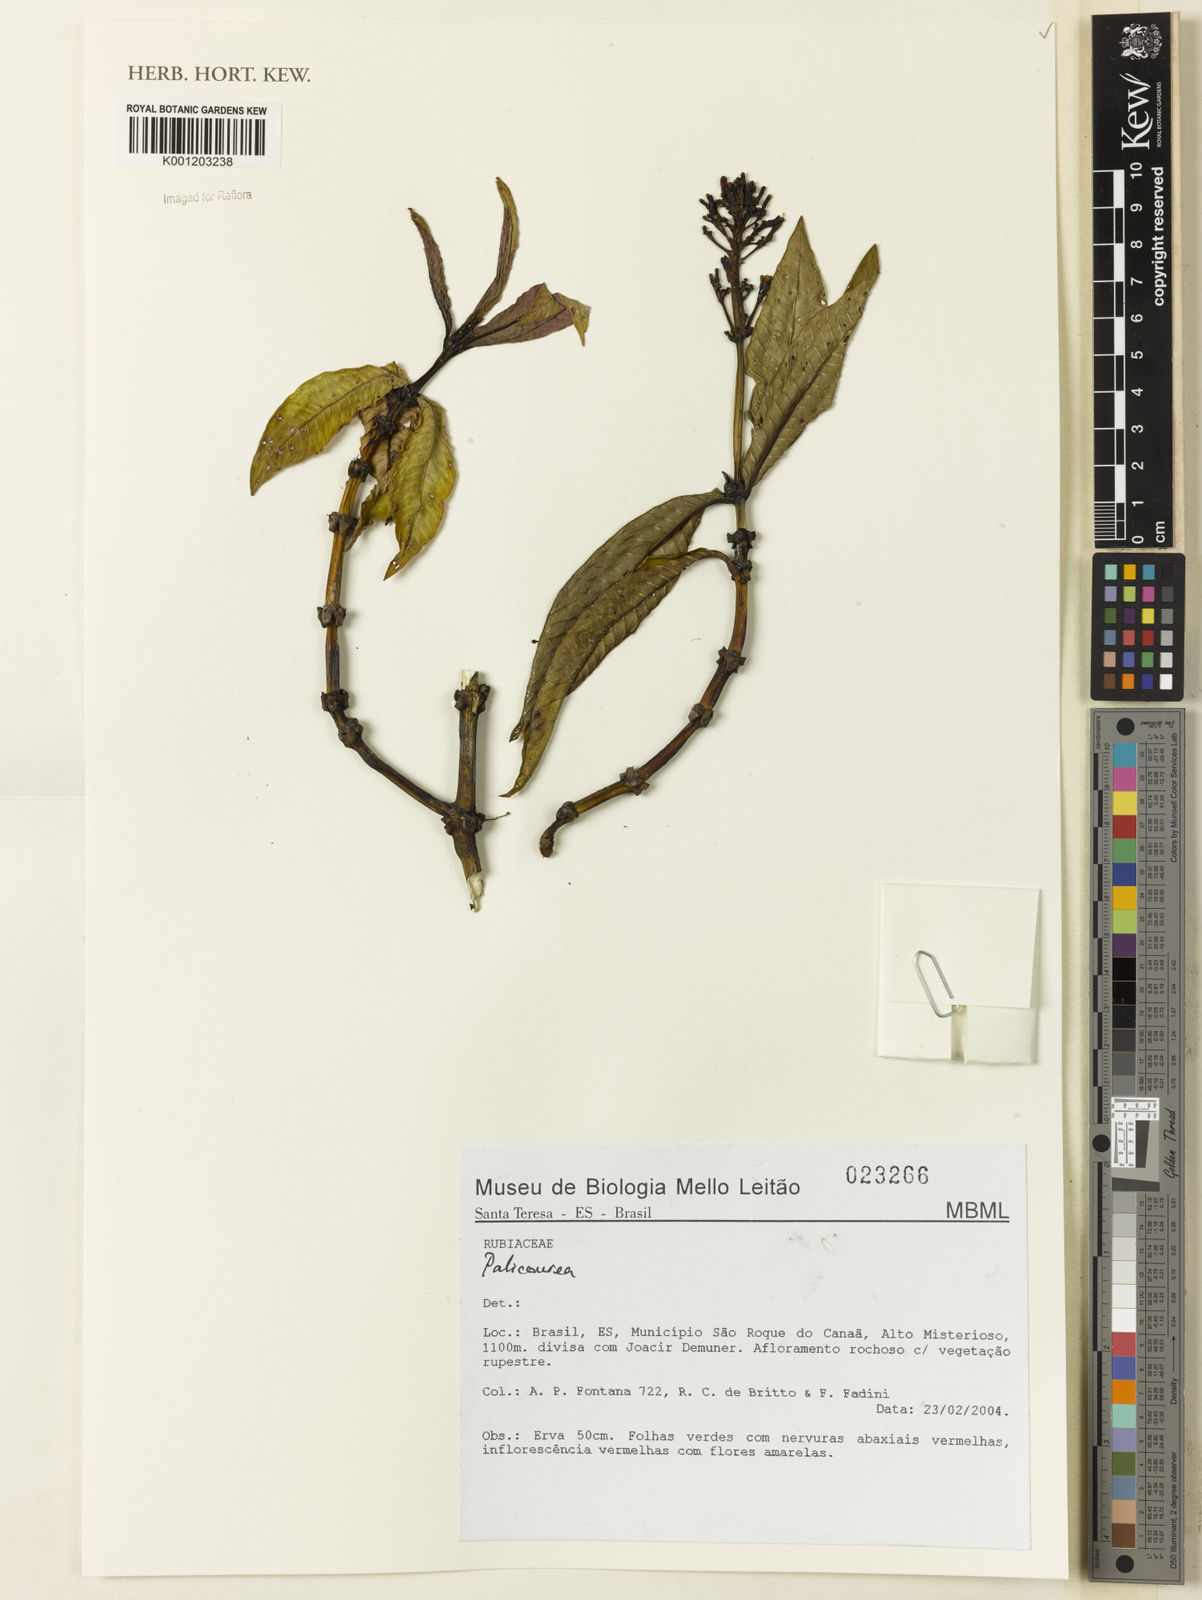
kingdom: Plantae
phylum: Tracheophyta
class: Magnoliopsida
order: Gentianales
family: Rubiaceae
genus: Palicourea
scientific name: Palicourea
